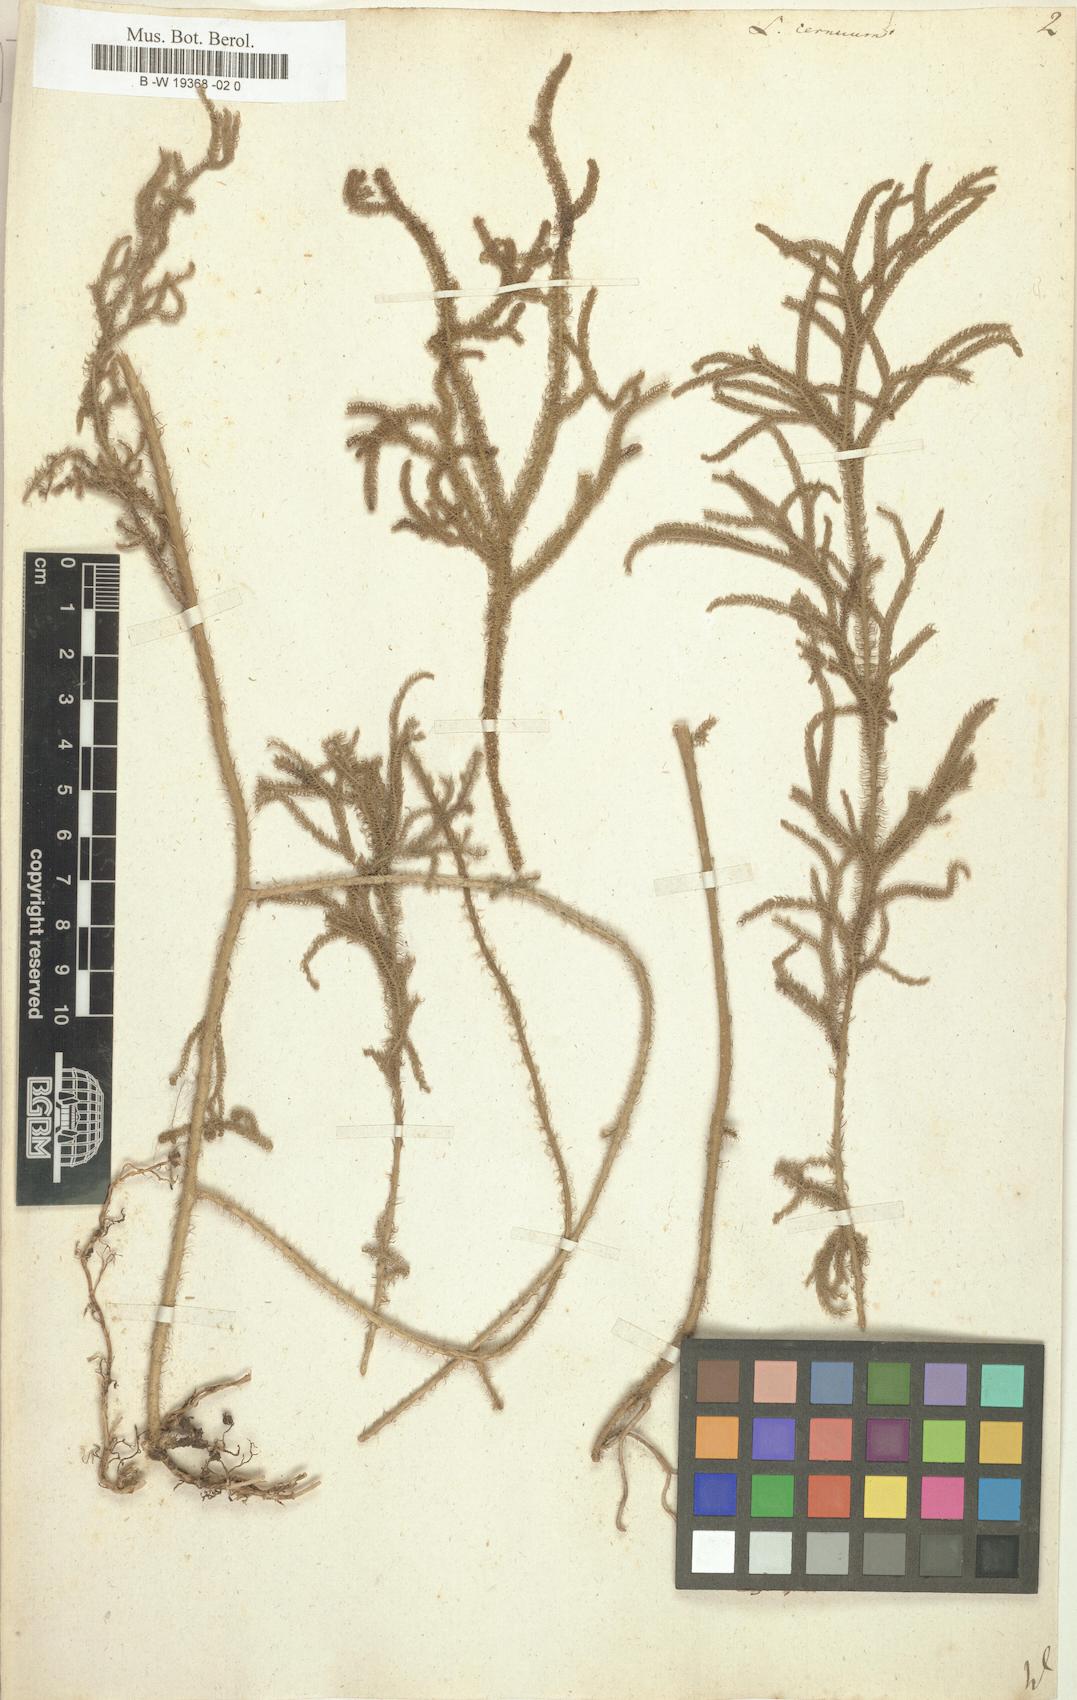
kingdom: Plantae
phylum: Tracheophyta
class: Lycopodiopsida
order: Lycopodiales
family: Lycopodiaceae
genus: Palhinhaea
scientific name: Palhinhaea cernua
